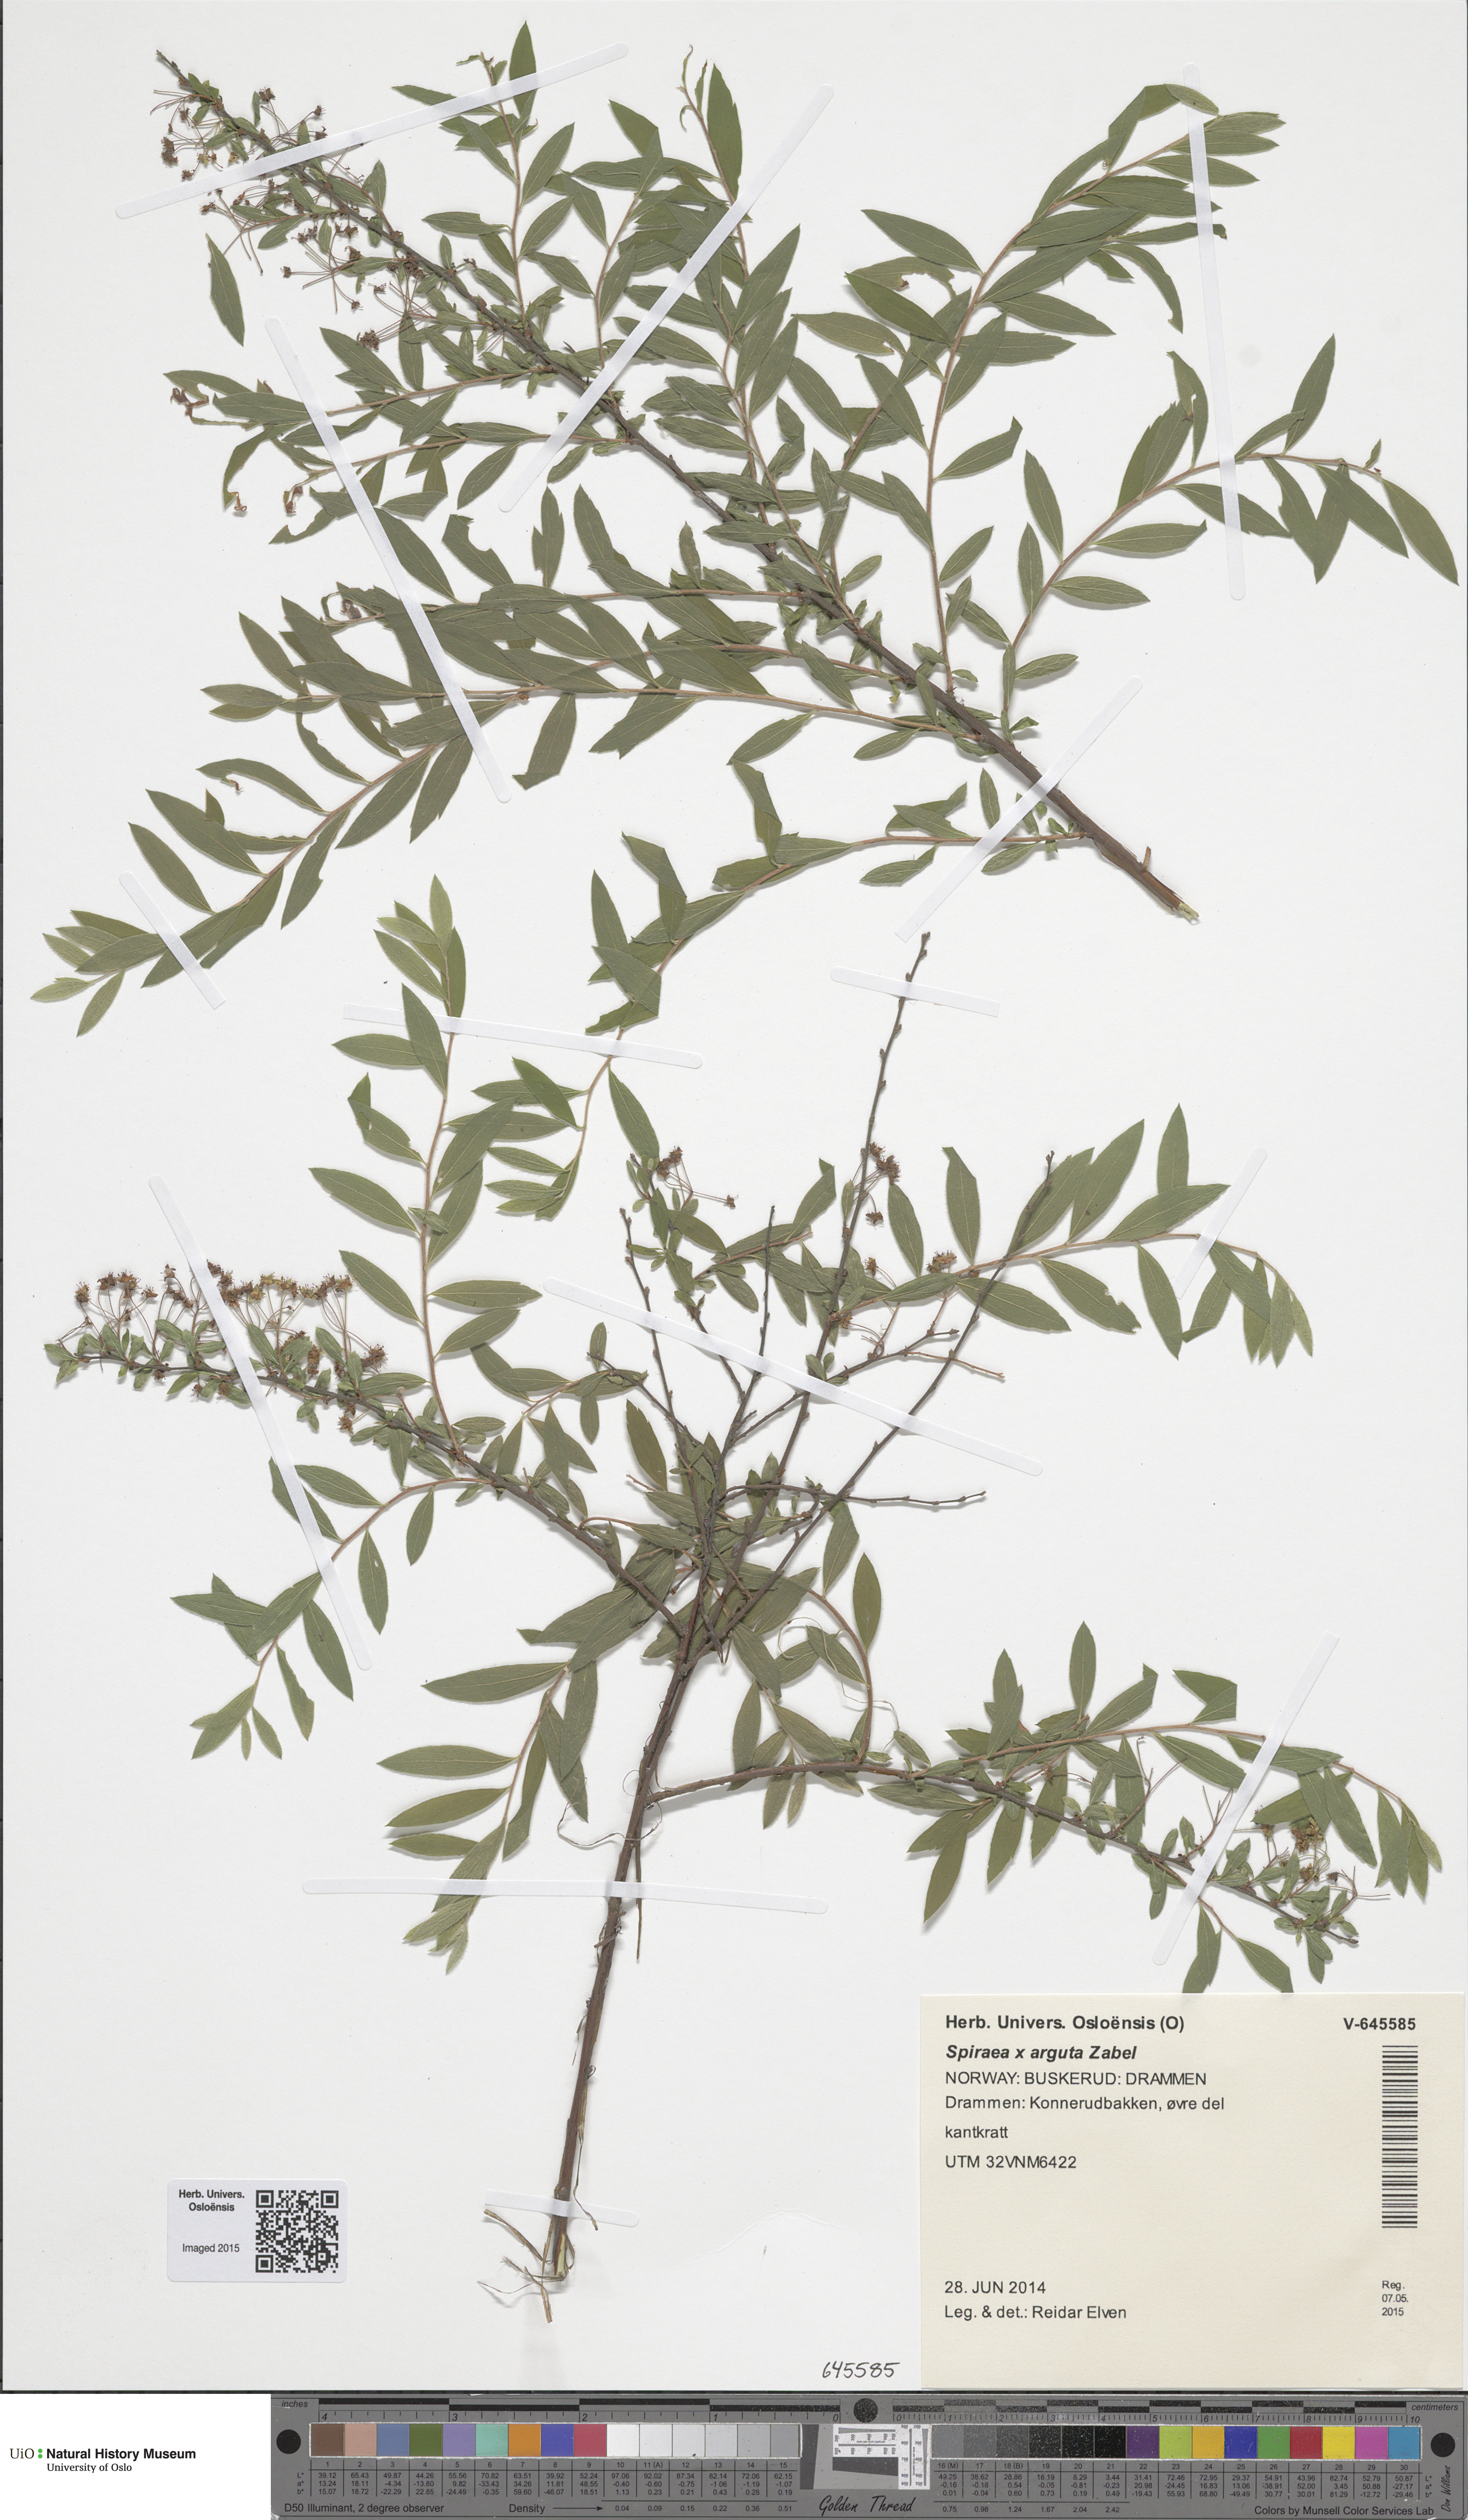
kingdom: Plantae
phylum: Tracheophyta
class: Magnoliopsida
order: Rosales
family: Rosaceae
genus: Spiraea
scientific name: Spiraea cinerea
